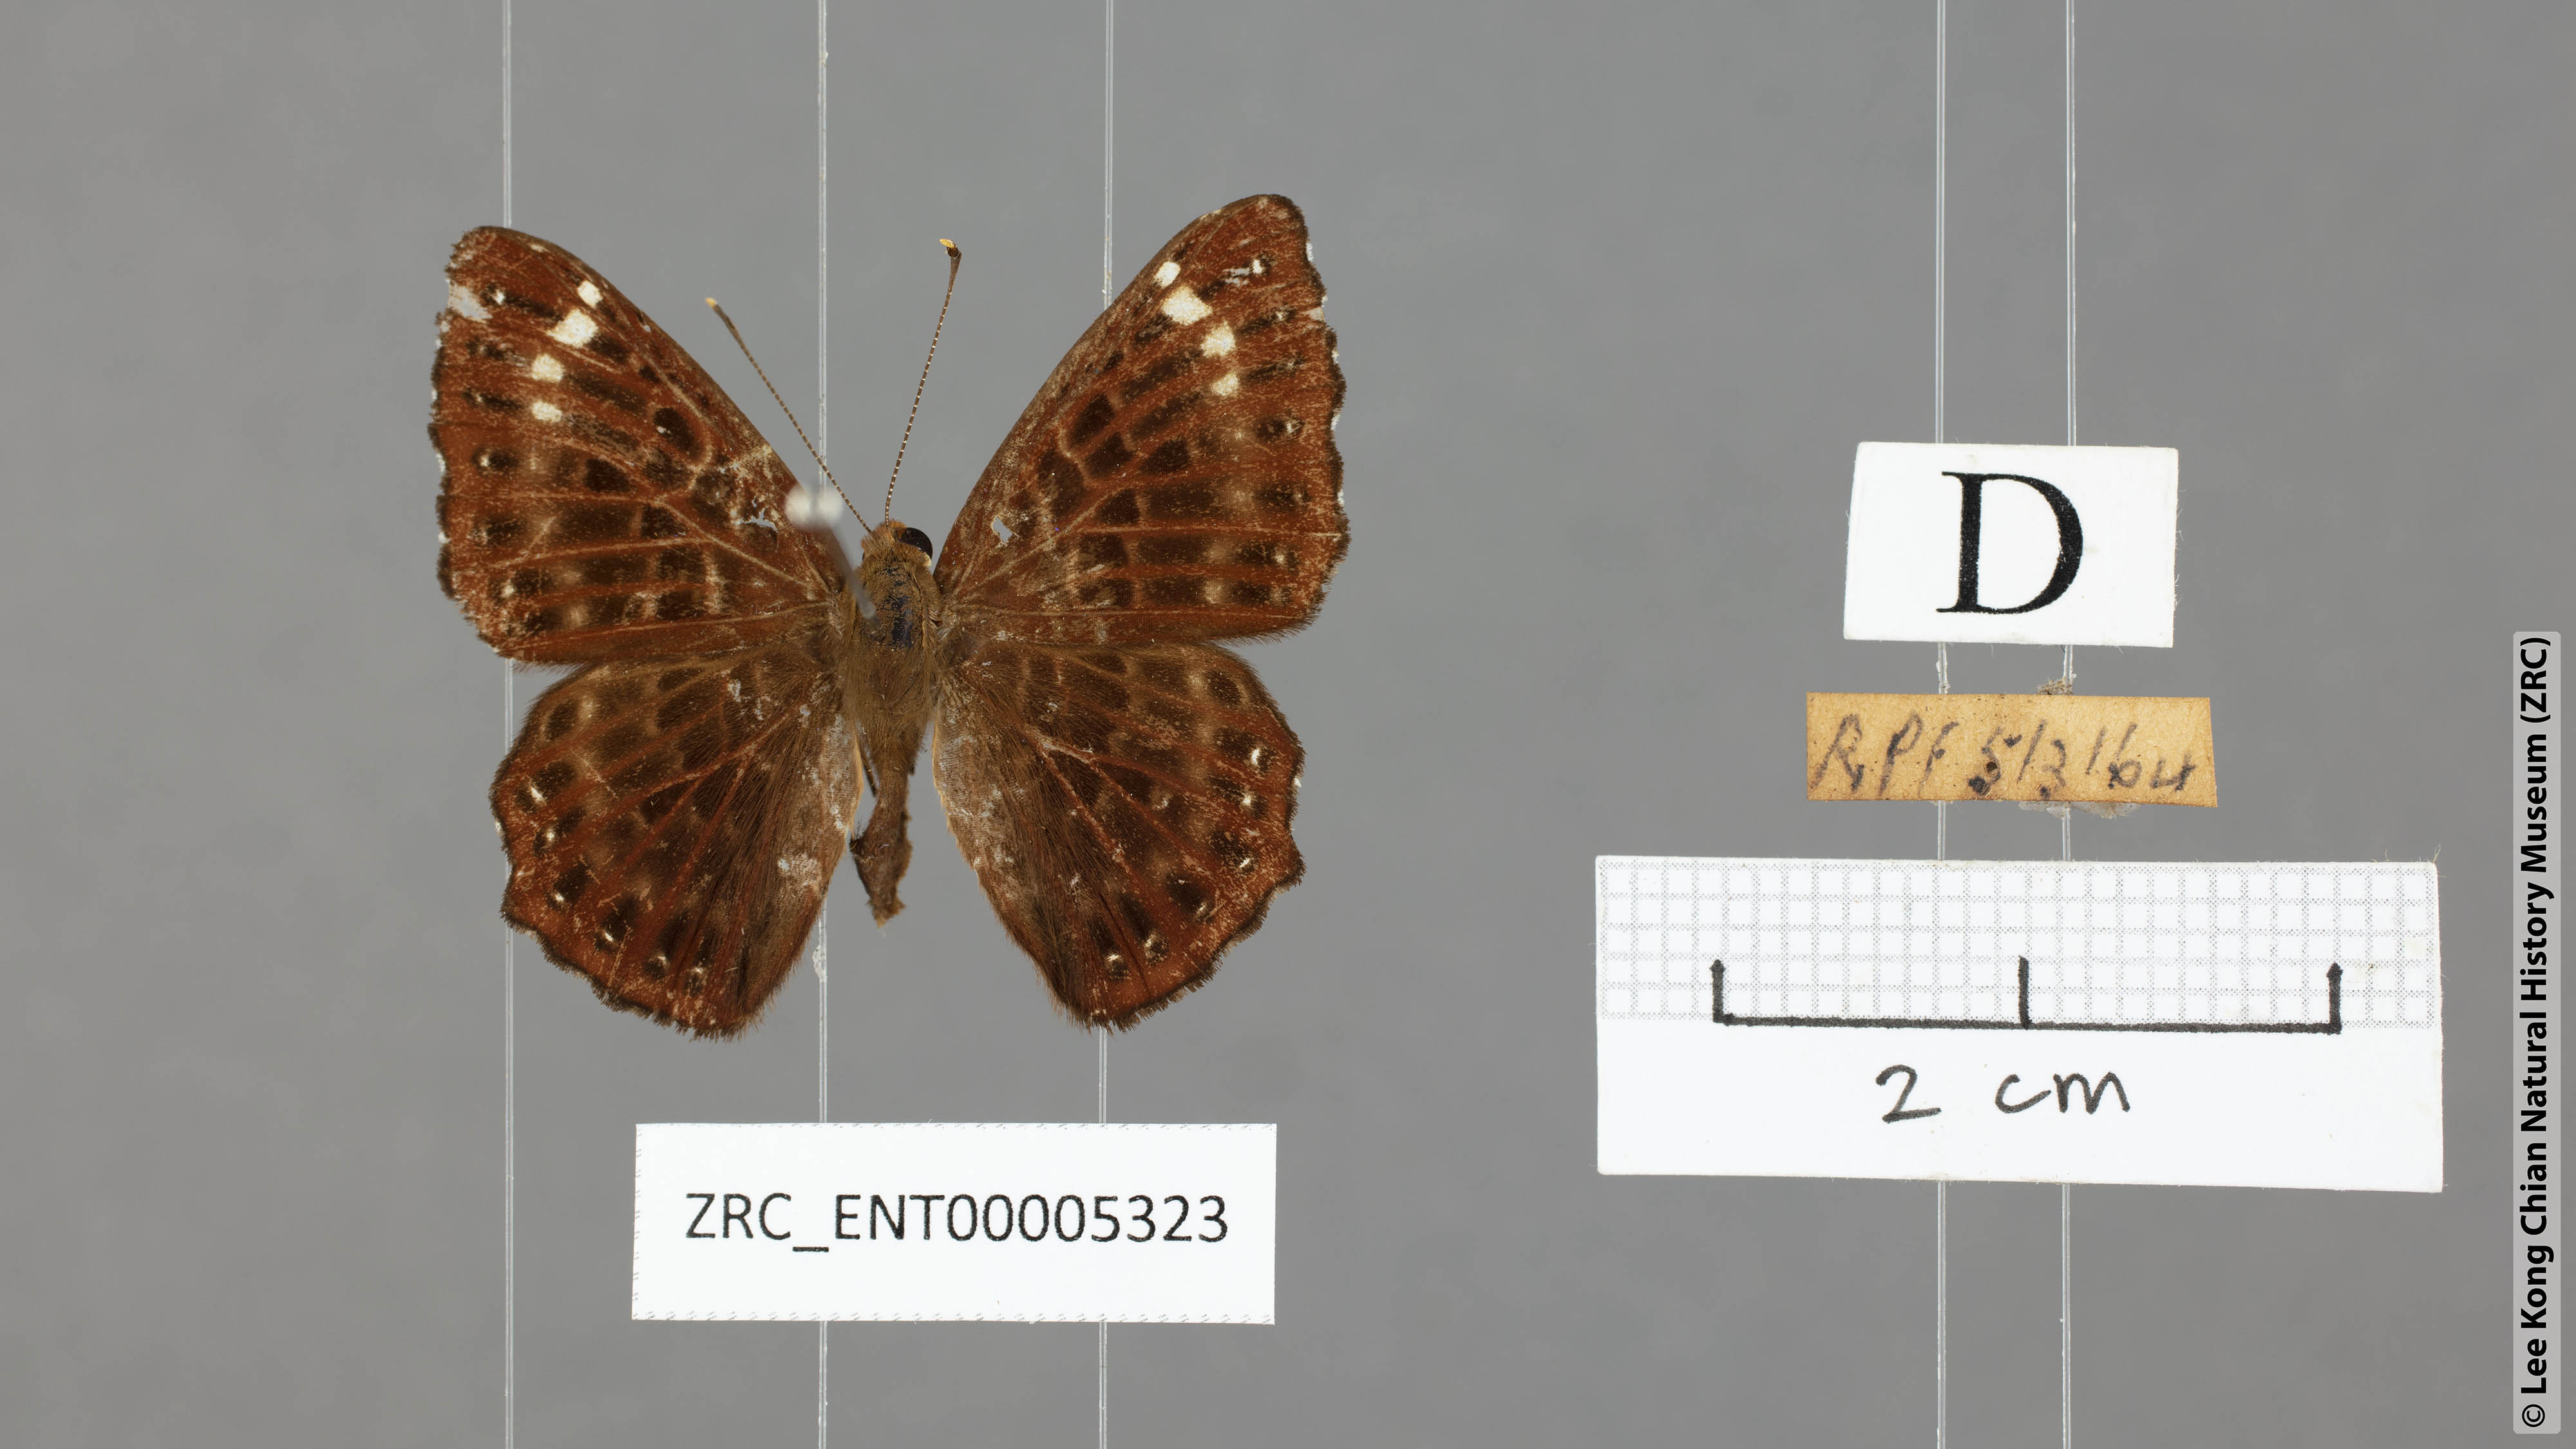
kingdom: Animalia
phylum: Arthropoda
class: Insecta
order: Lepidoptera
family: Riodinidae
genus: Zemeros
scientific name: Zemeros flegyas
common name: Punchinello
